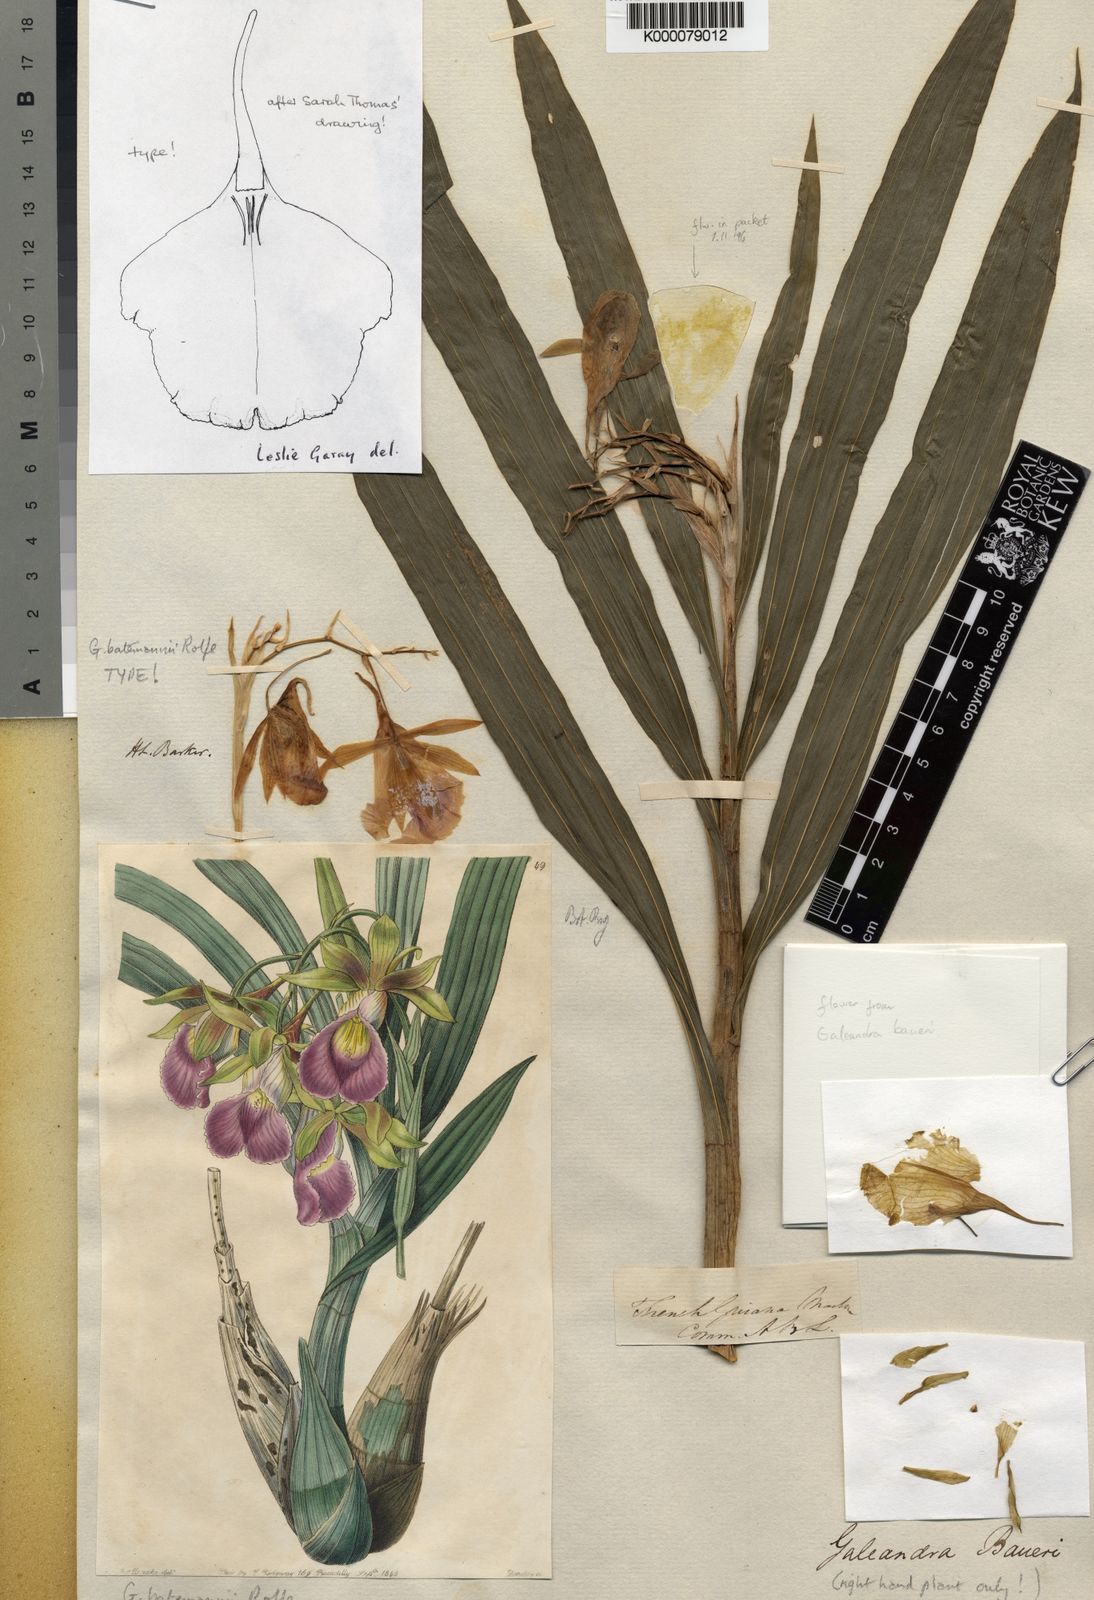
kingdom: Plantae
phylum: Tracheophyta
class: Liliopsida
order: Asparagales
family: Orchidaceae
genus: Galeandra
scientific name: Galeandra batemanii
